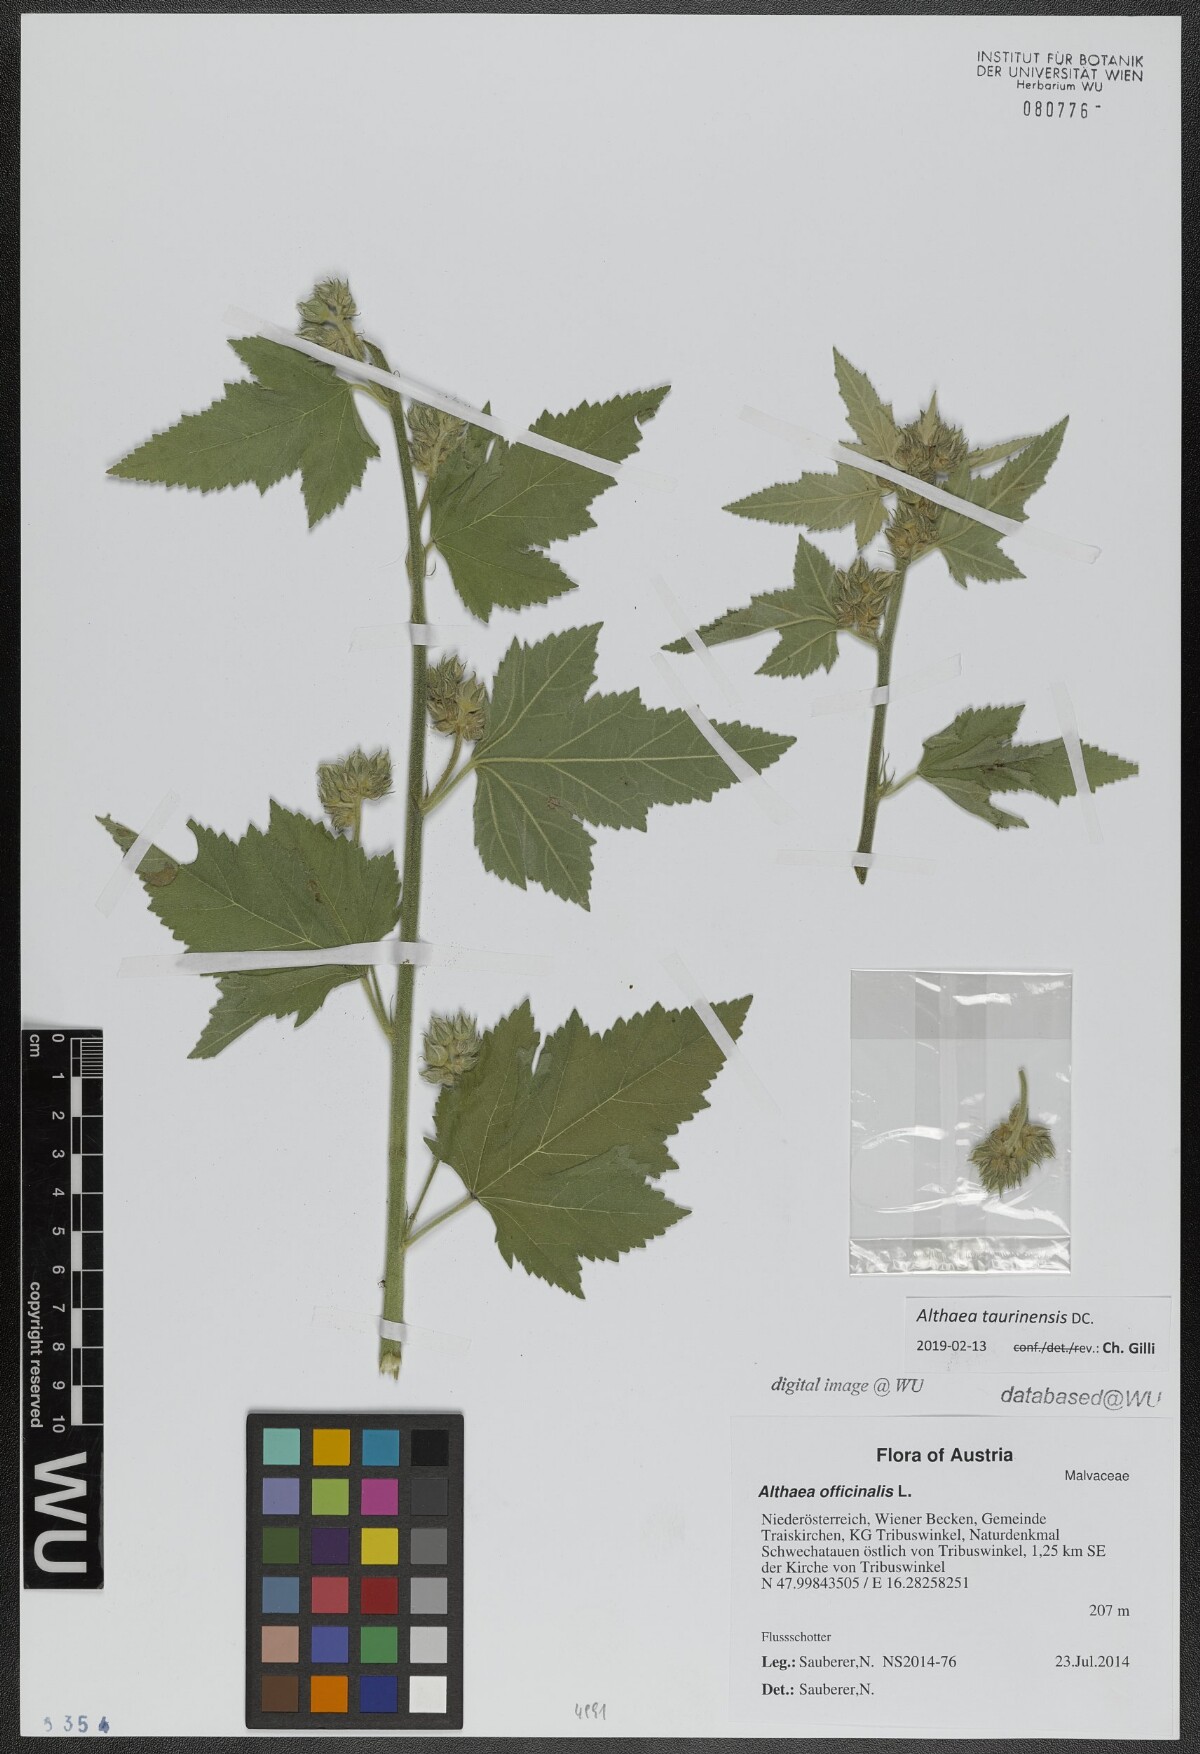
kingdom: Plantae
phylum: Tracheophyta
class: Magnoliopsida
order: Malvales
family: Malvaceae
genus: Althaea
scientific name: Althaea taurinensis
